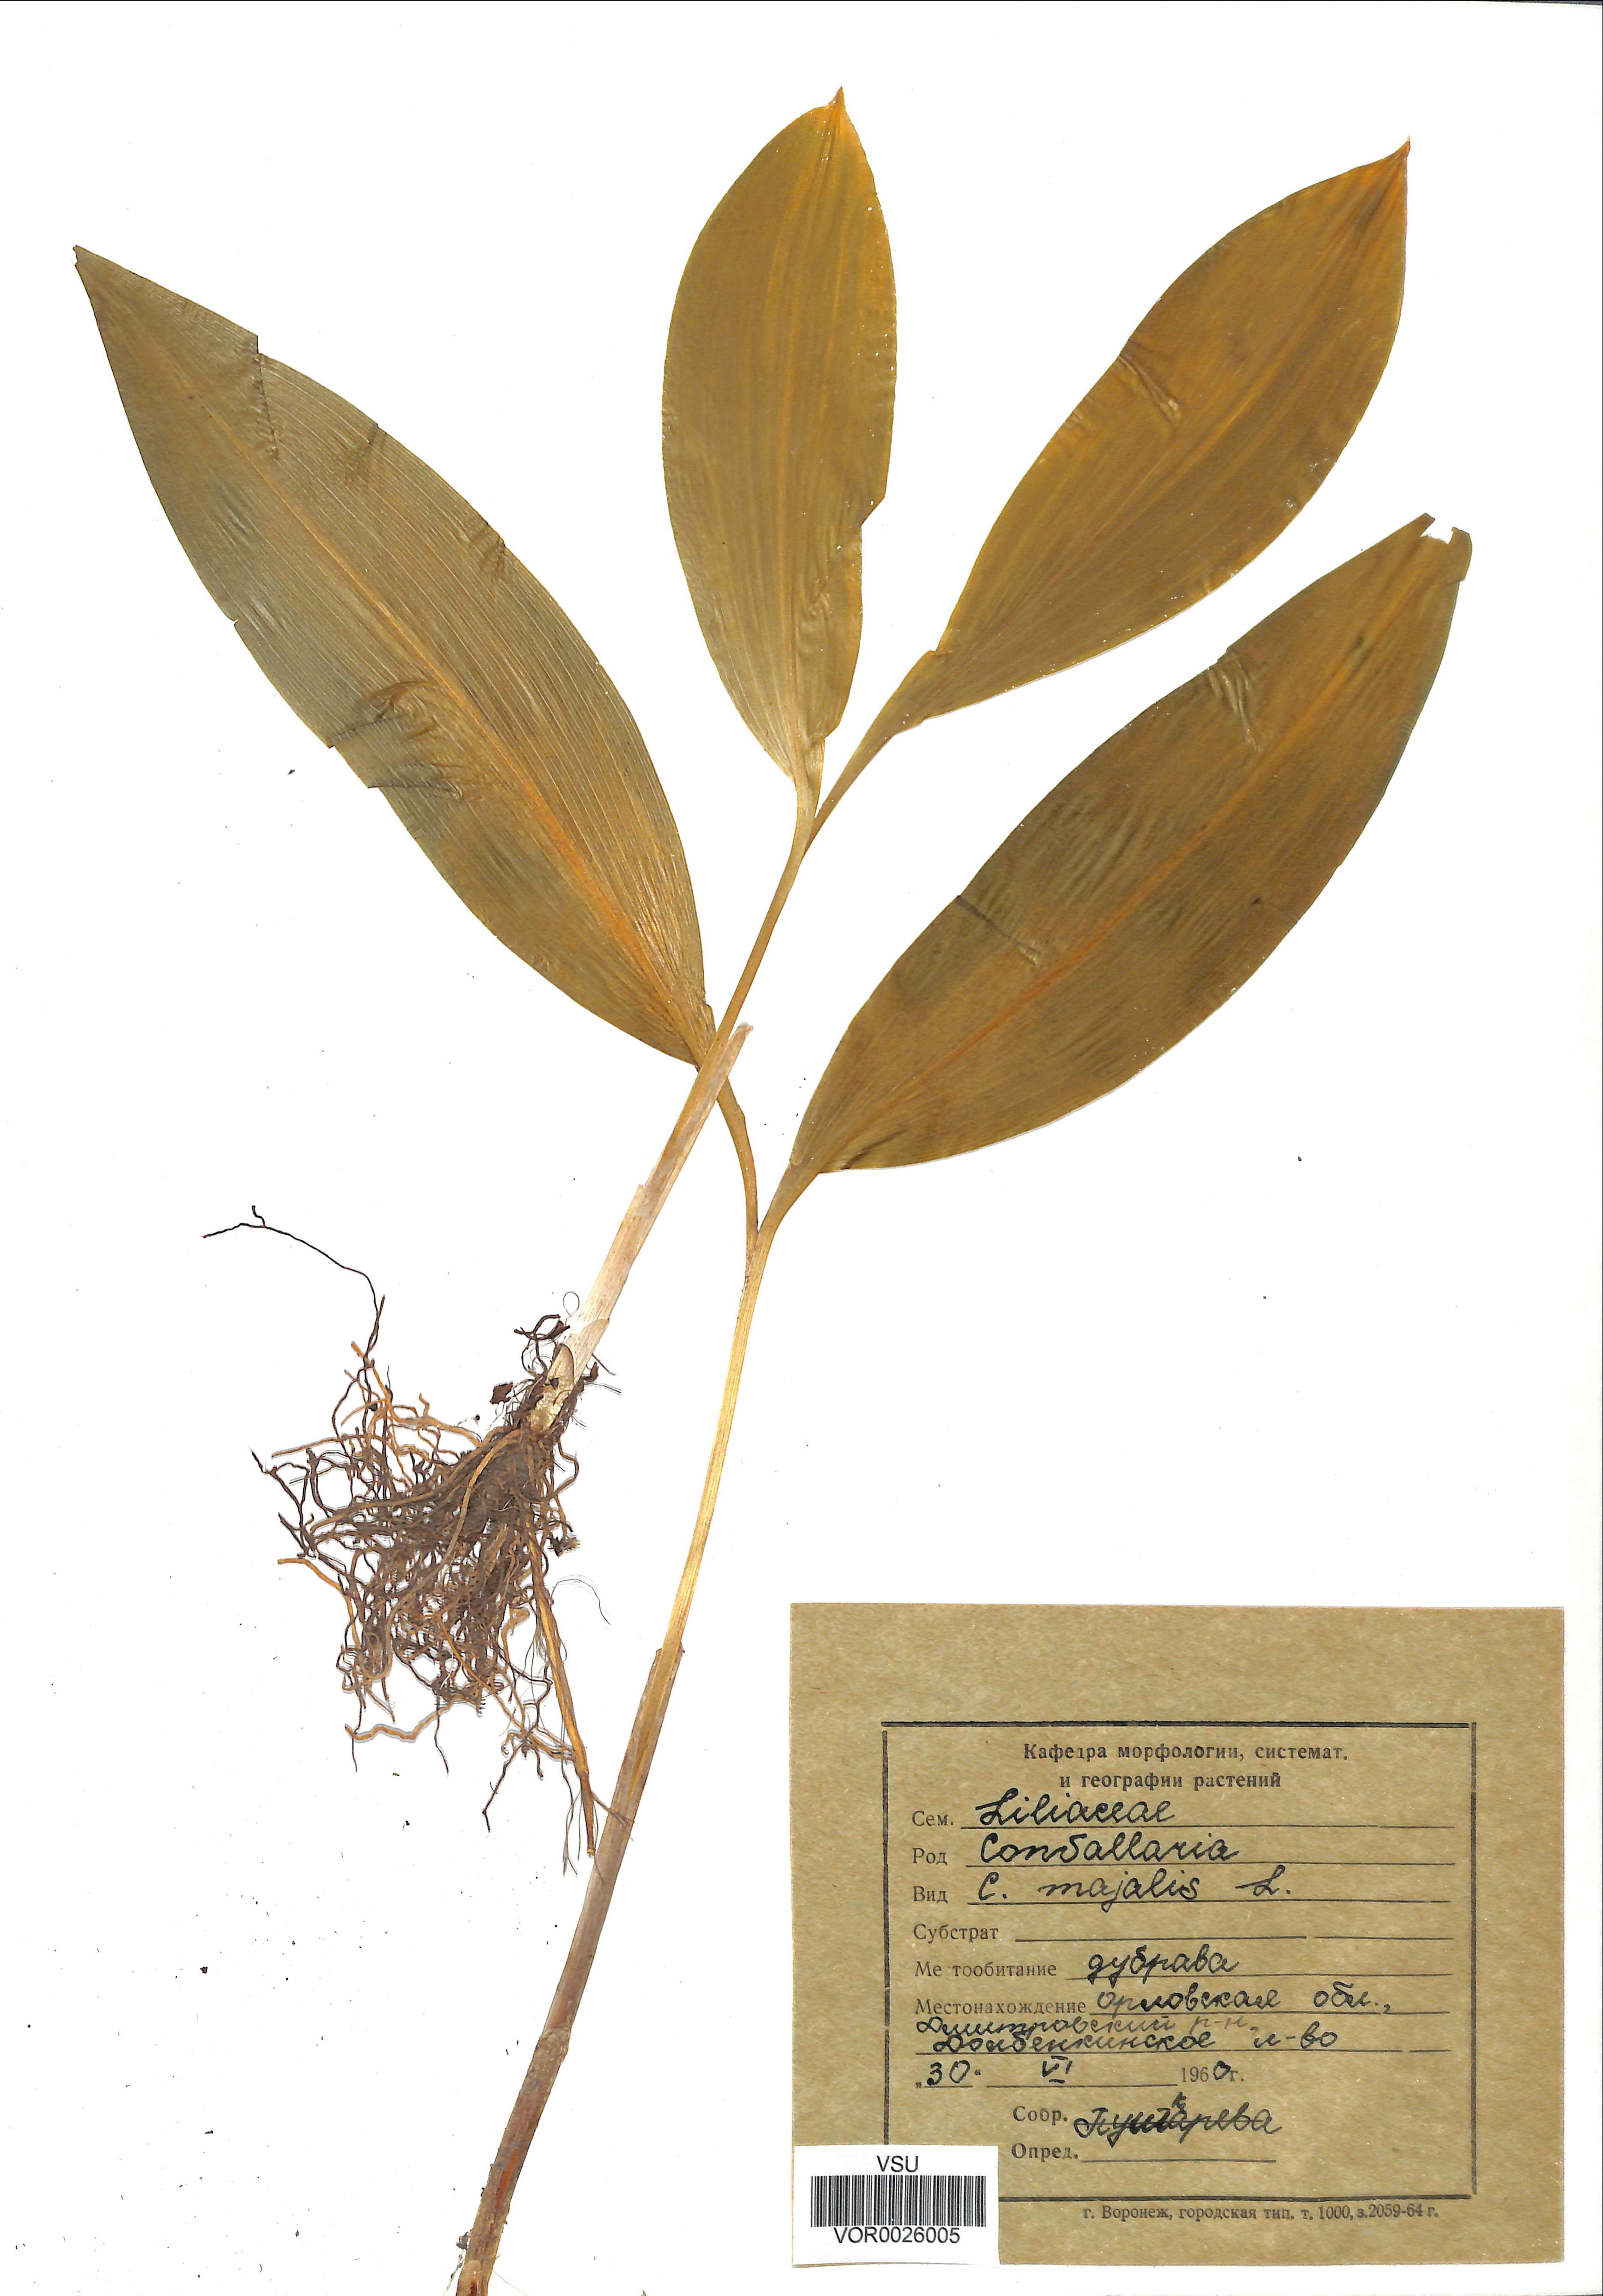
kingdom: Plantae
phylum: Tracheophyta
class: Liliopsida
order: Asparagales
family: Asparagaceae
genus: Convallaria
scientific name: Convallaria majalis
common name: Lily-of-the-valley
